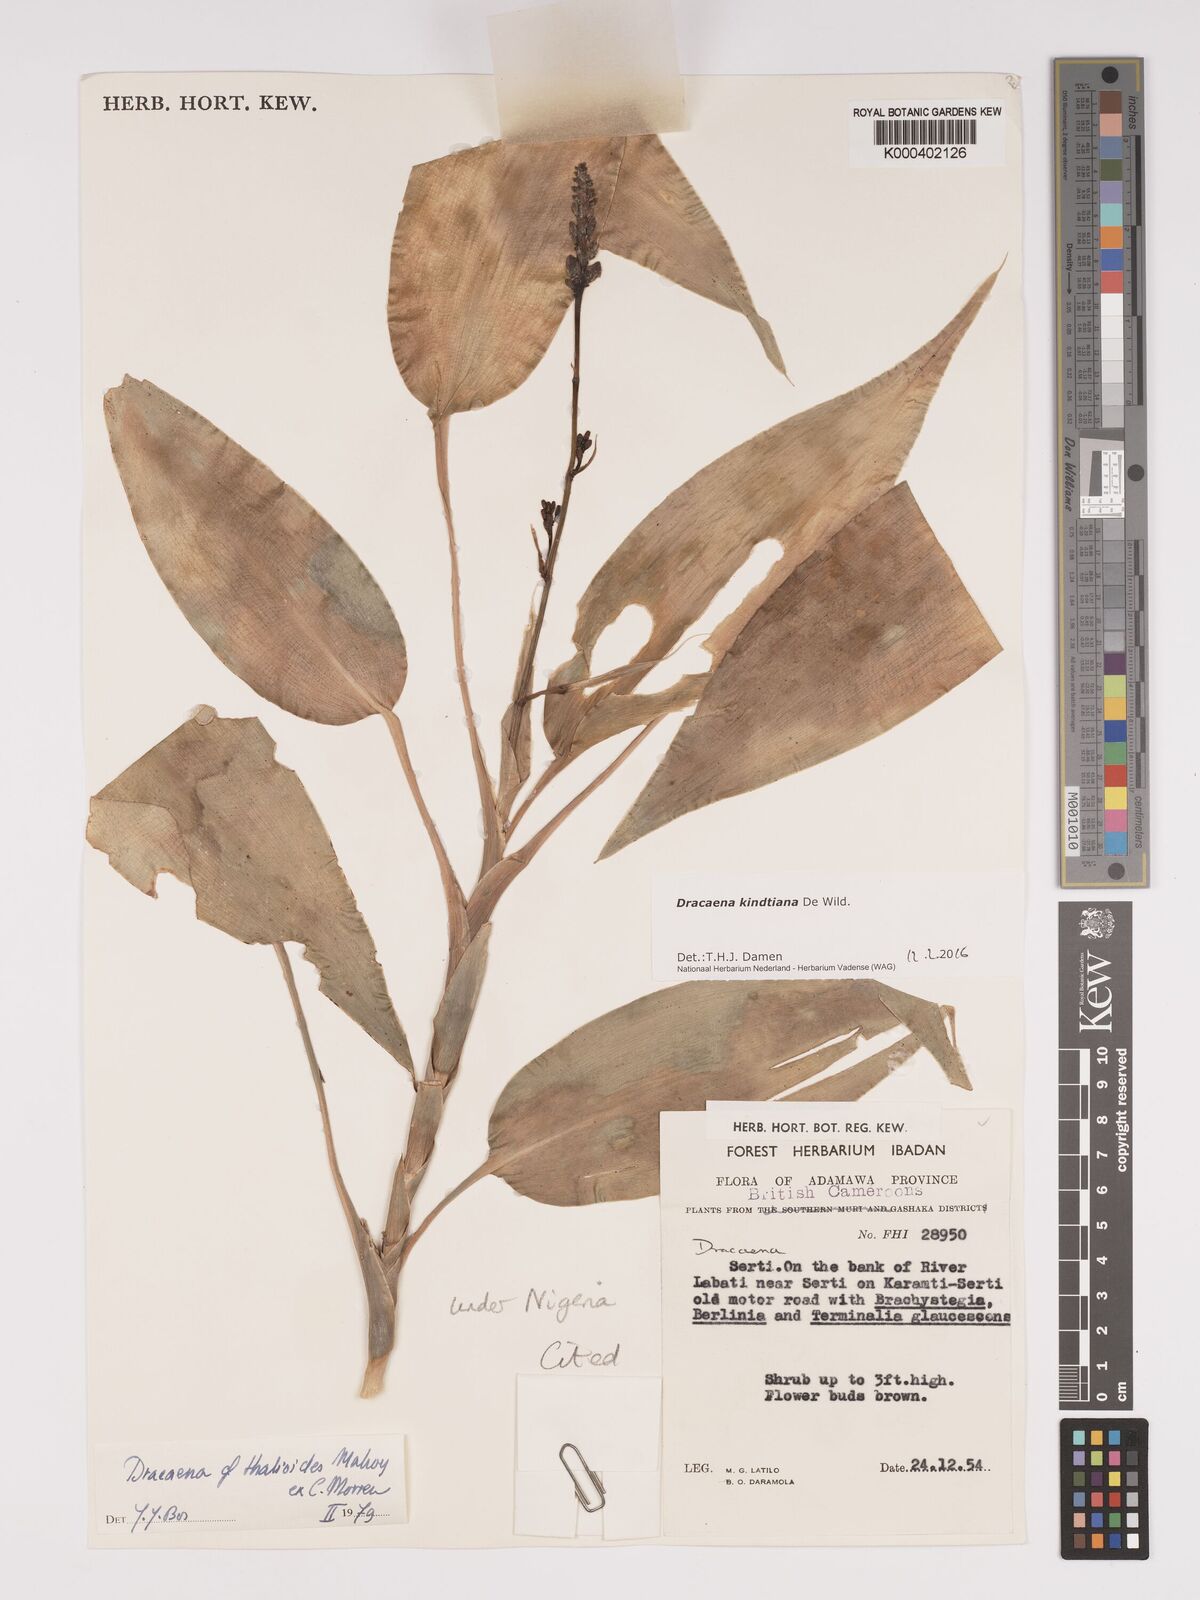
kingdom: Plantae
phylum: Tracheophyta
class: Liliopsida
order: Asparagales
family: Asparagaceae
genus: Dracaena
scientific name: Dracaena kindtiana
